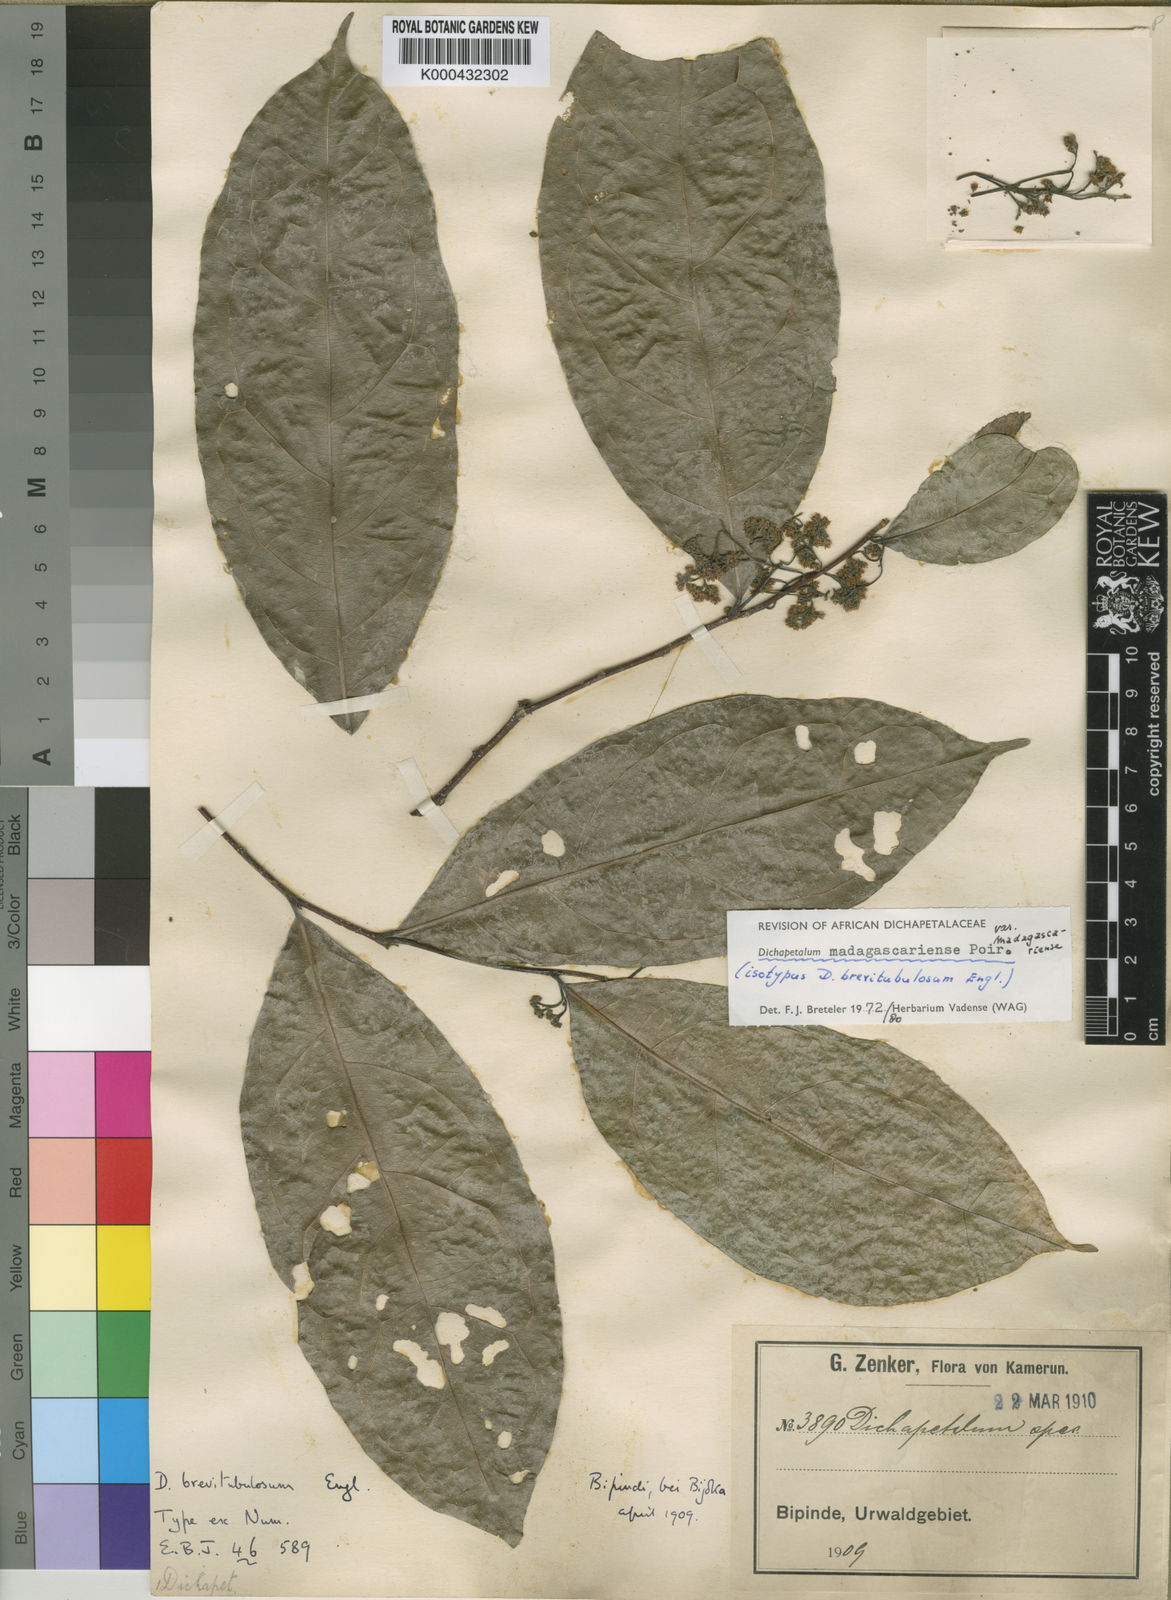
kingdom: Plantae
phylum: Tracheophyta
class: Magnoliopsida
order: Malpighiales
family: Dichapetalaceae
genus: Dichapetalum
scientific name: Dichapetalum madagascariense
